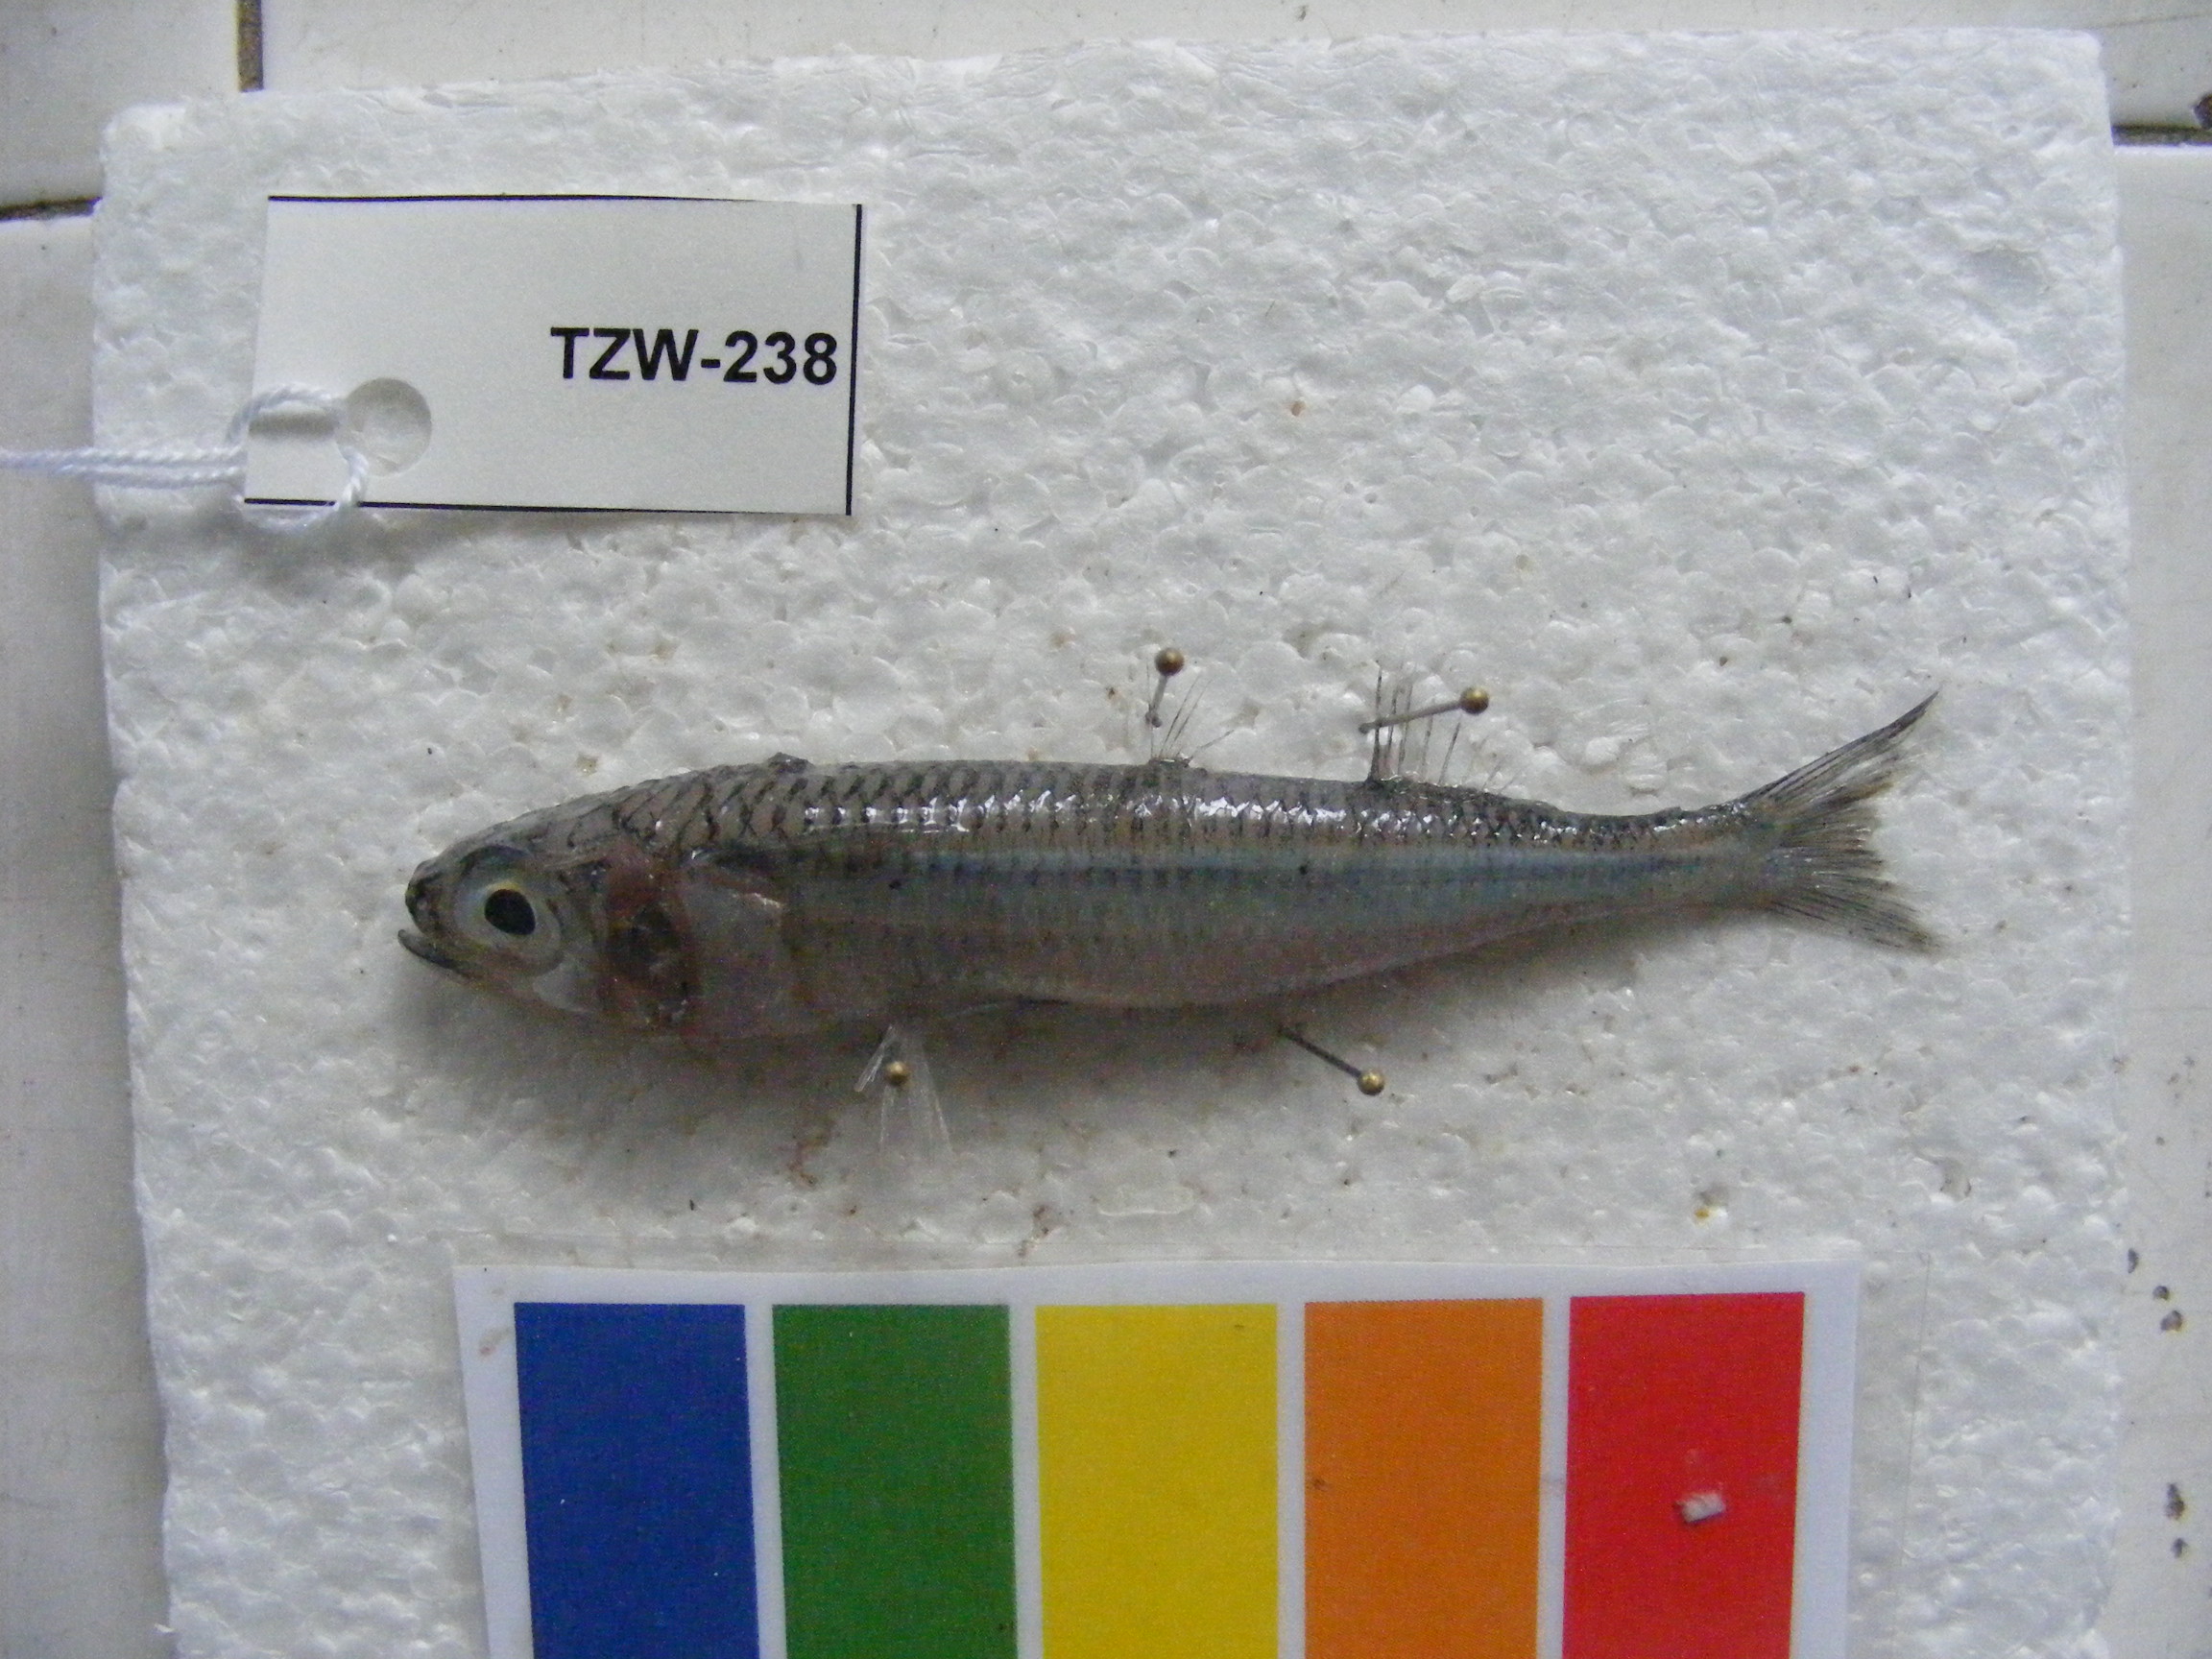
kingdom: Animalia
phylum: Chordata
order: Atheriniformes
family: Atherinidae
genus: Atherinomorus
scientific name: Atherinomorus lacunosus
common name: Hardyhead silverside
